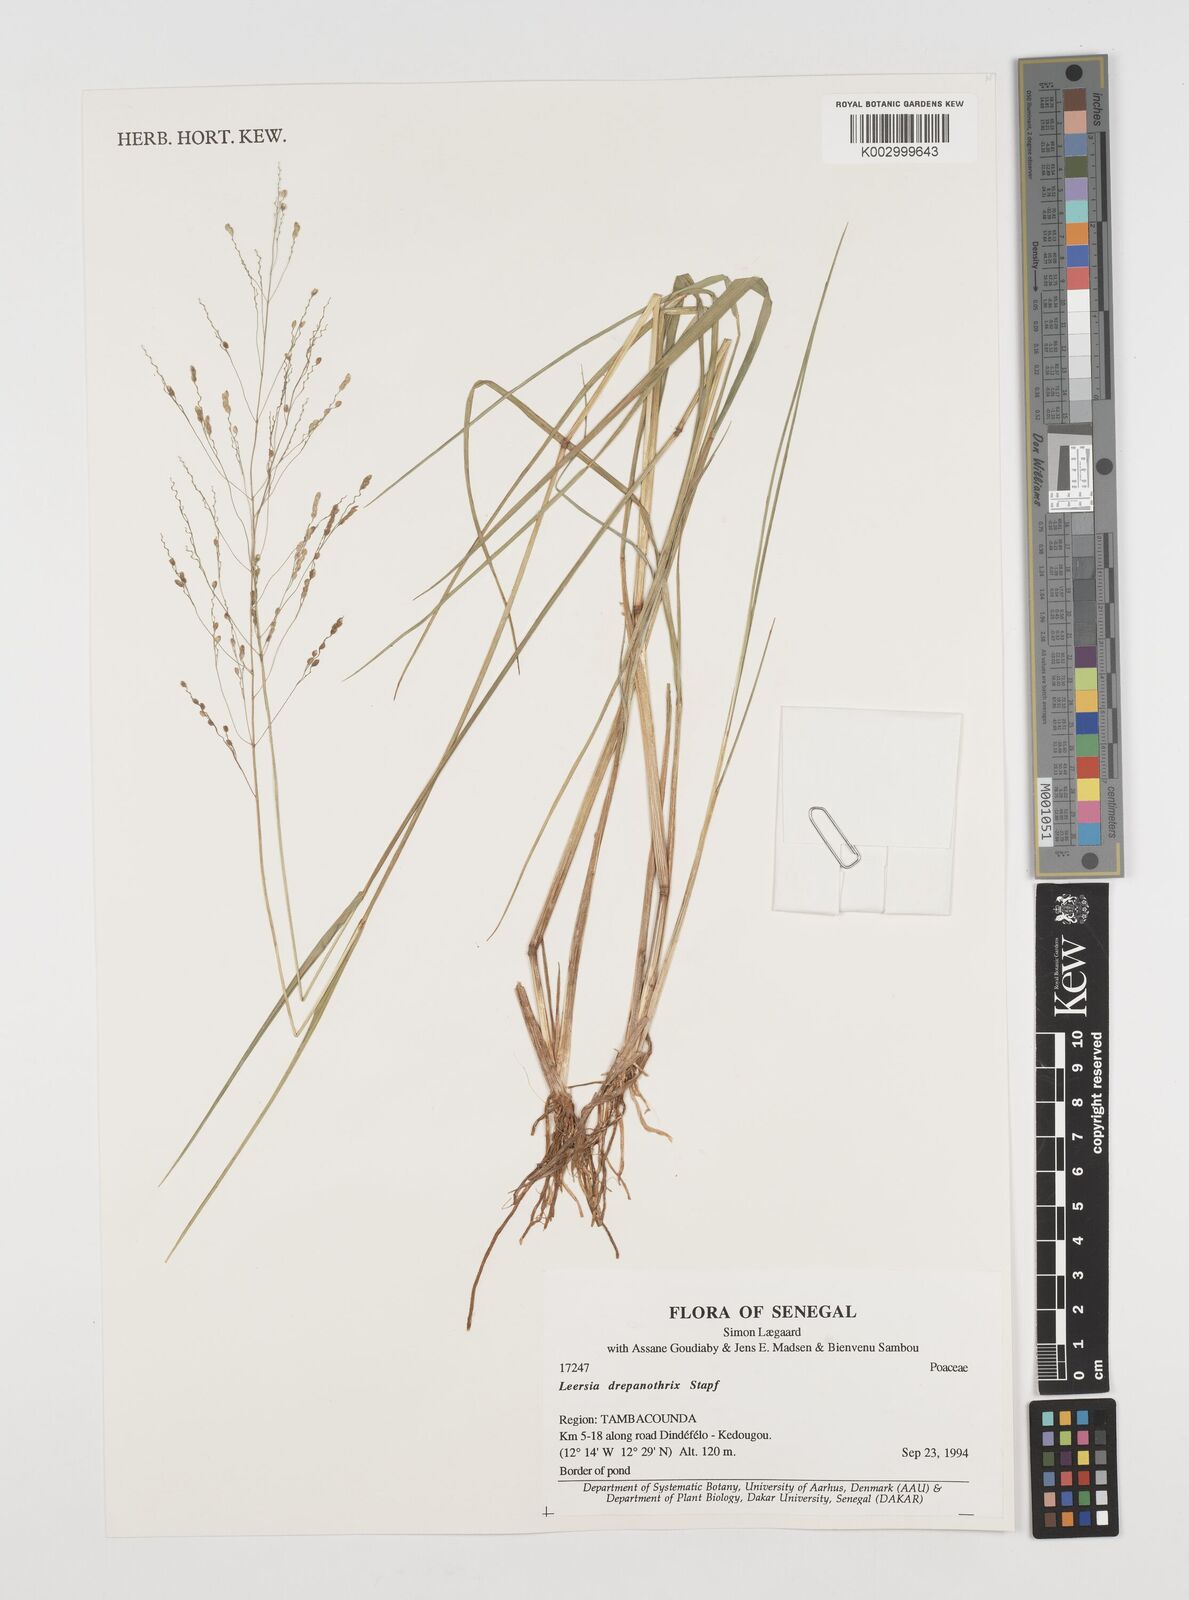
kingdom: Plantae
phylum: Tracheophyta
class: Liliopsida
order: Poales
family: Poaceae
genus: Leersia
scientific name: Leersia hexandra
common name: Southern cut grass
